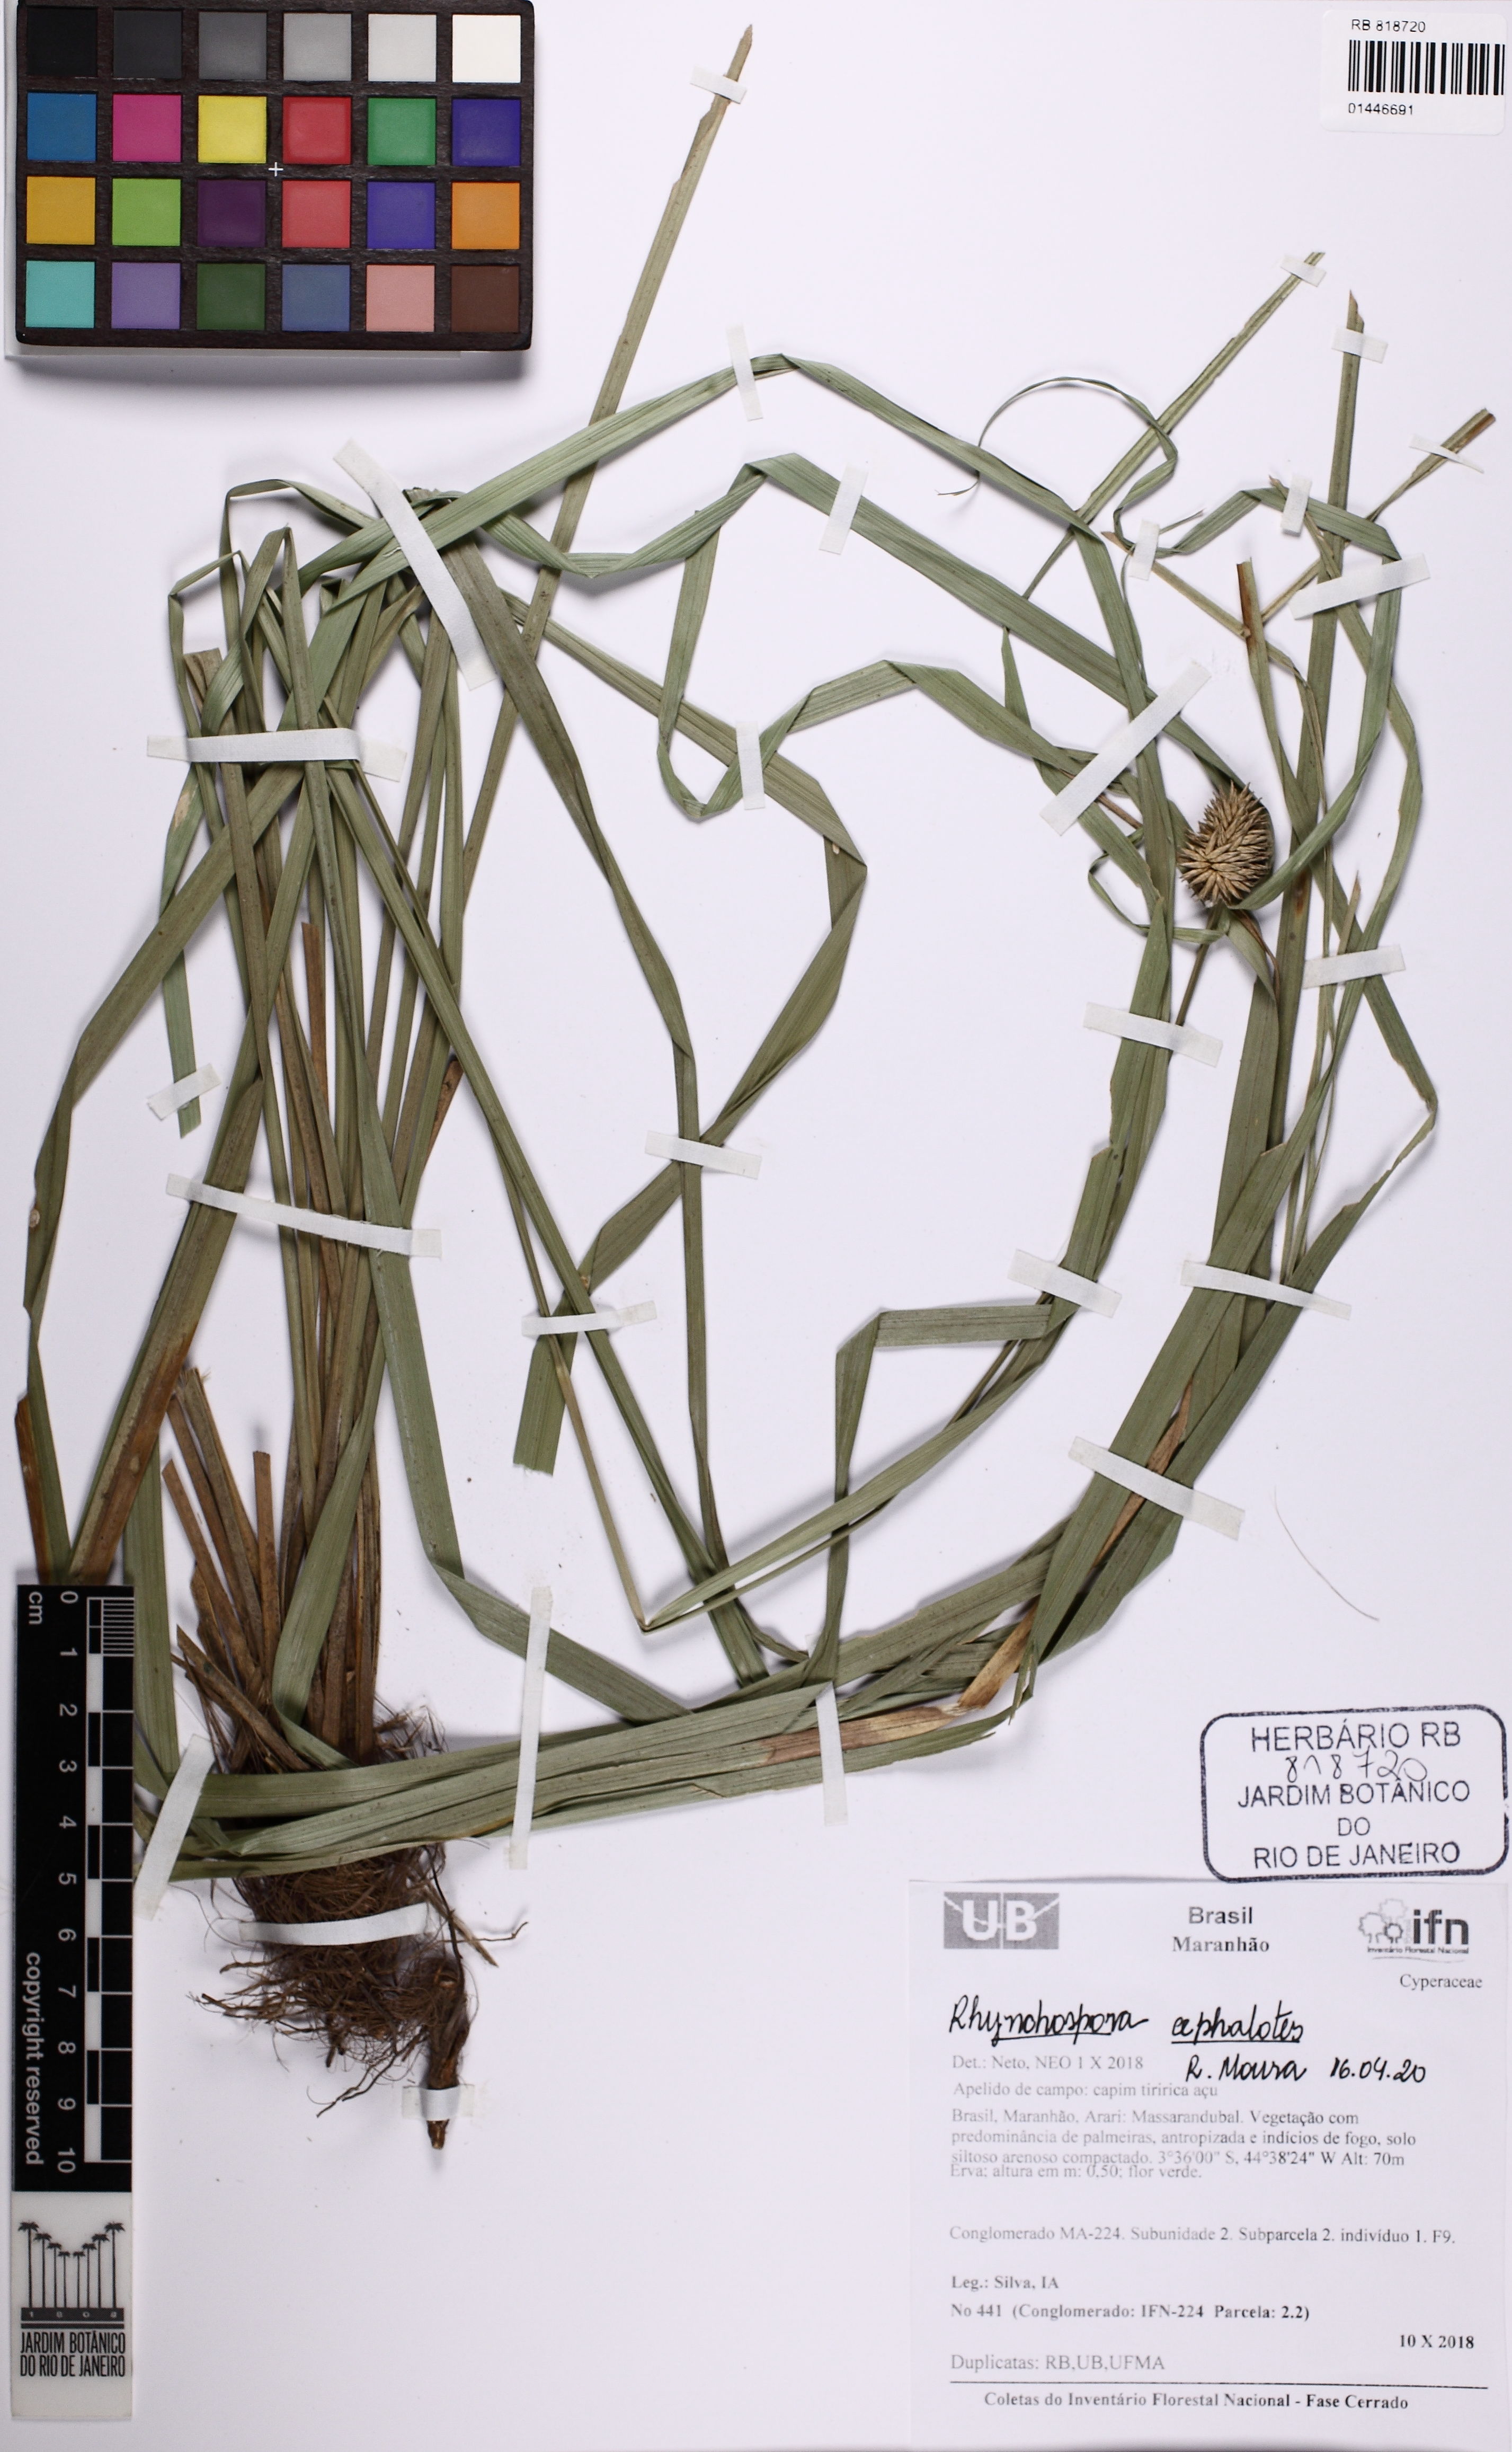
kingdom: Plantae
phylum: Tracheophyta
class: Liliopsida
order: Poales
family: Cyperaceae
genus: Rhynchospora
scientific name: Rhynchospora cephalotes
